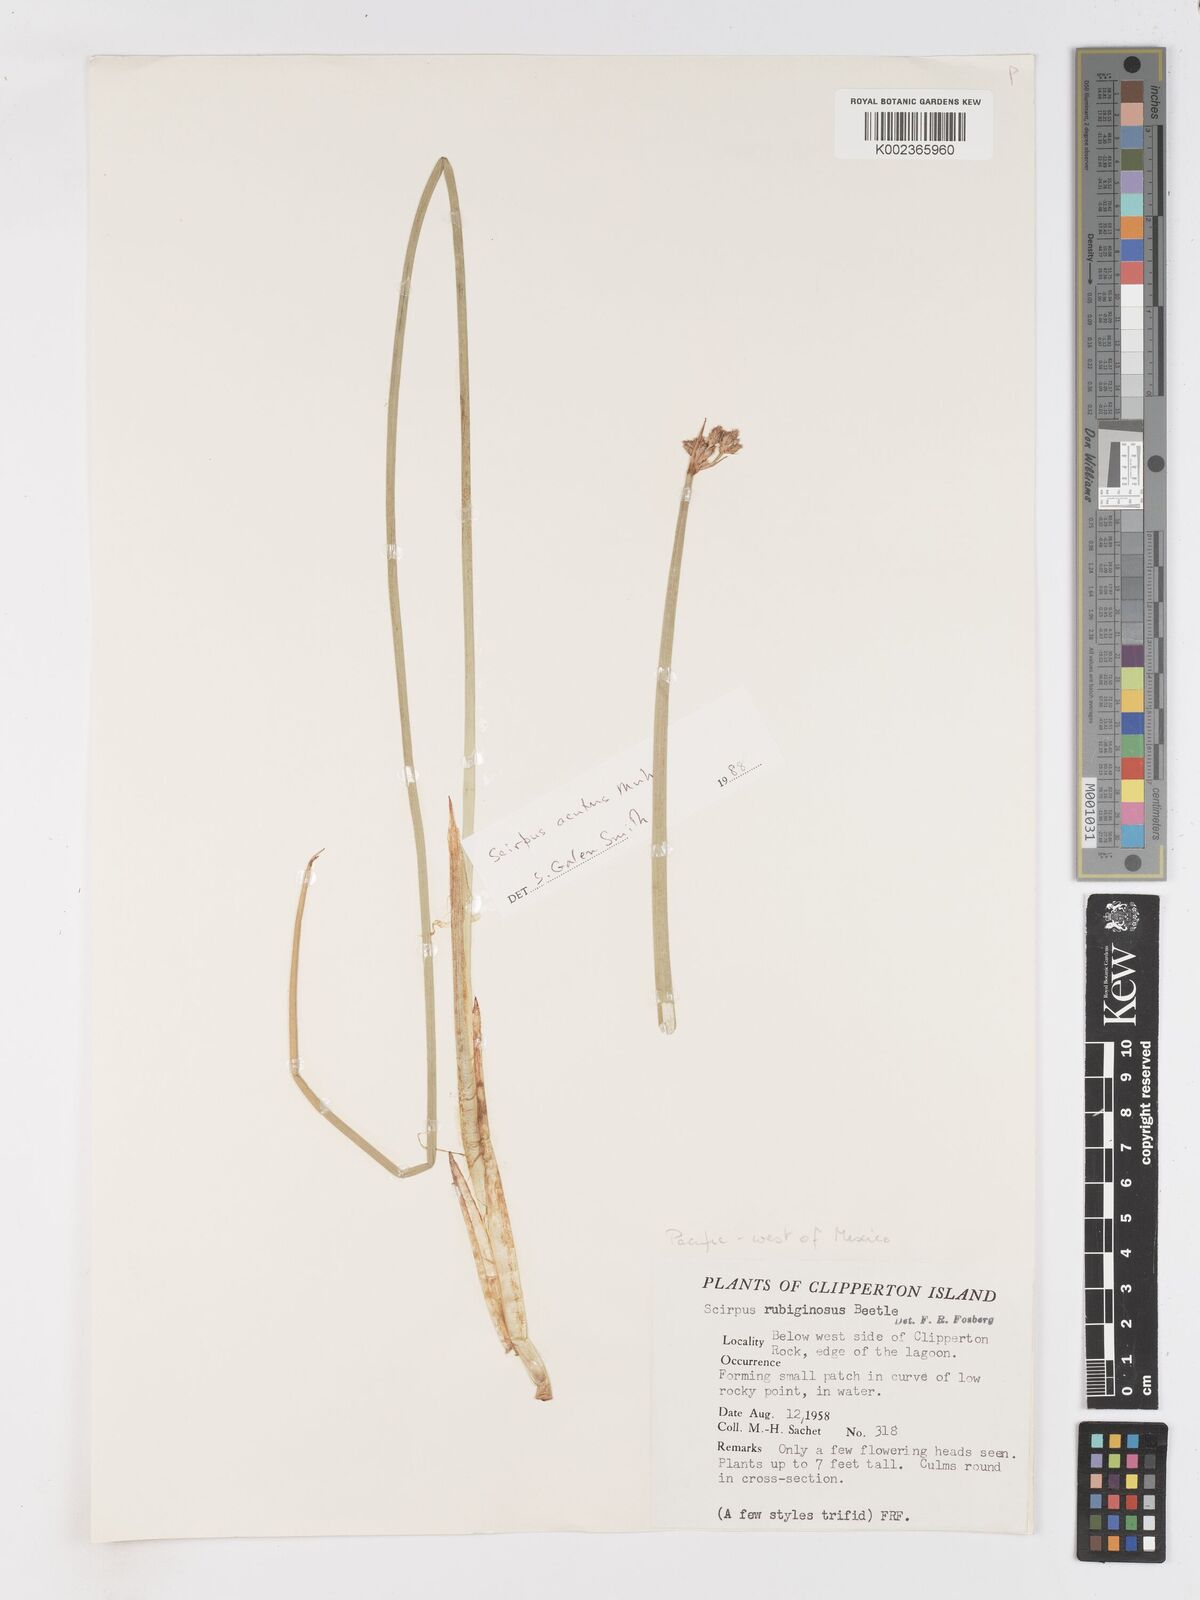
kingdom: Plantae
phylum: Tracheophyta
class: Liliopsida
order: Poales
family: Cyperaceae
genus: Schoenoplectus
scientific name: Schoenoplectus acutus
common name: Hardstem bulrush
